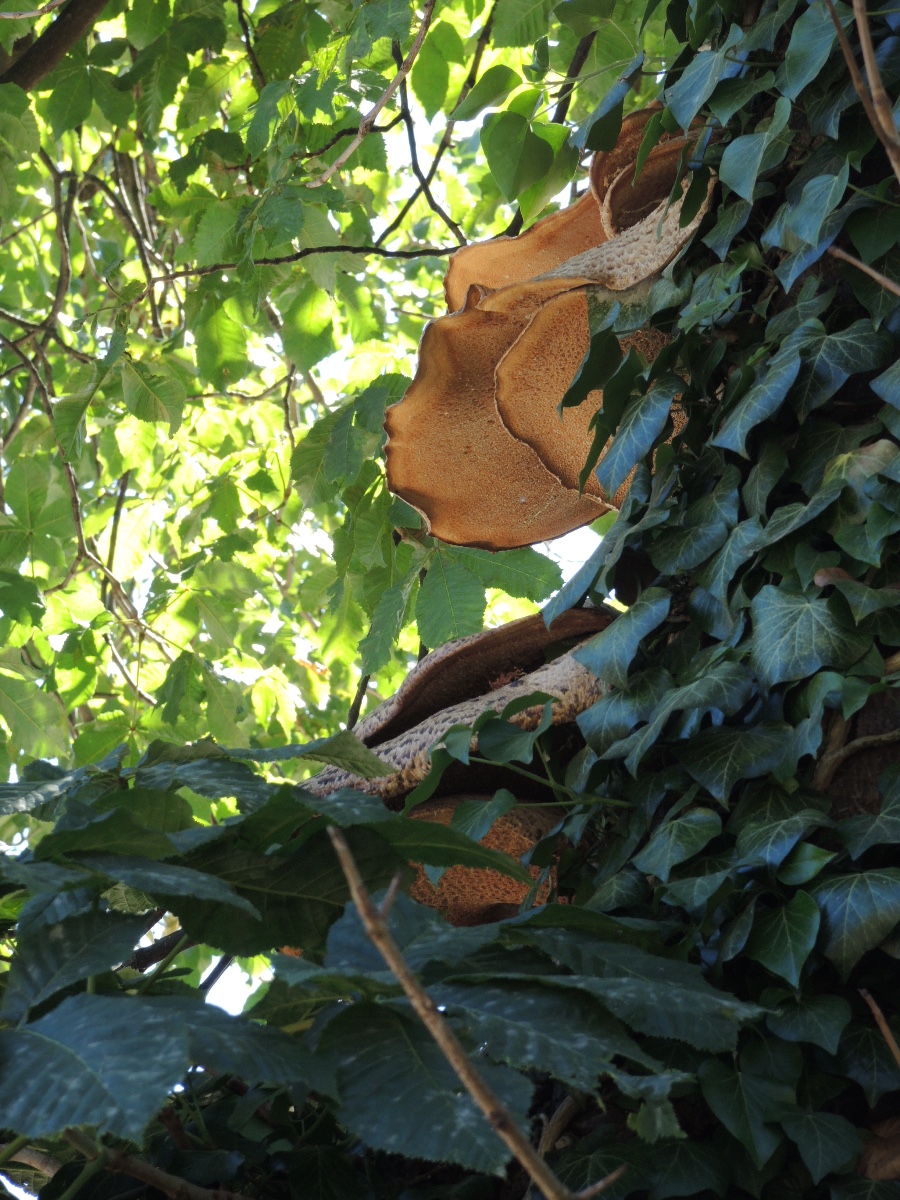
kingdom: Fungi
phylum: Basidiomycota
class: Agaricomycetes
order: Polyporales
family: Polyporaceae
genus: Cerioporus
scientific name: Cerioporus squamosus
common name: skællet stilkporesvamp
